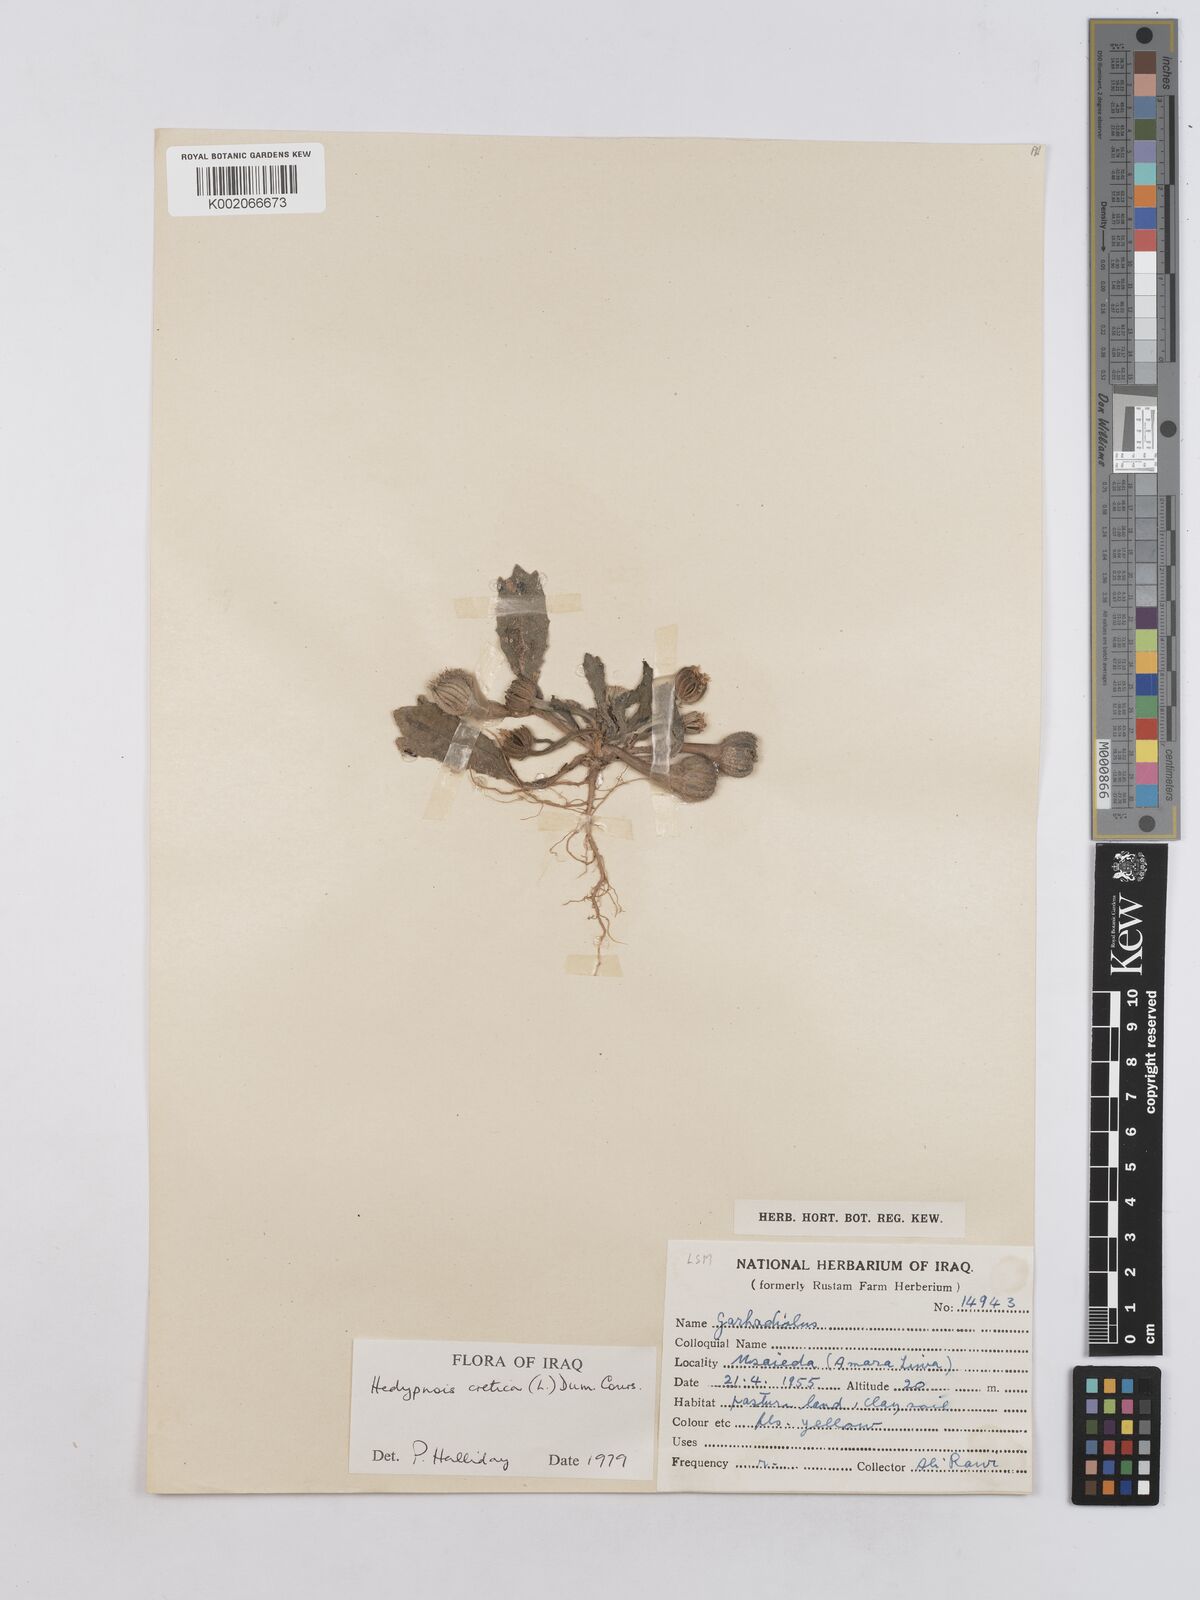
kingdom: Plantae
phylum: Tracheophyta
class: Magnoliopsida
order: Asterales
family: Asteraceae
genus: Hedypnois
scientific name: Hedypnois cretica
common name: Scaly hawkbit
